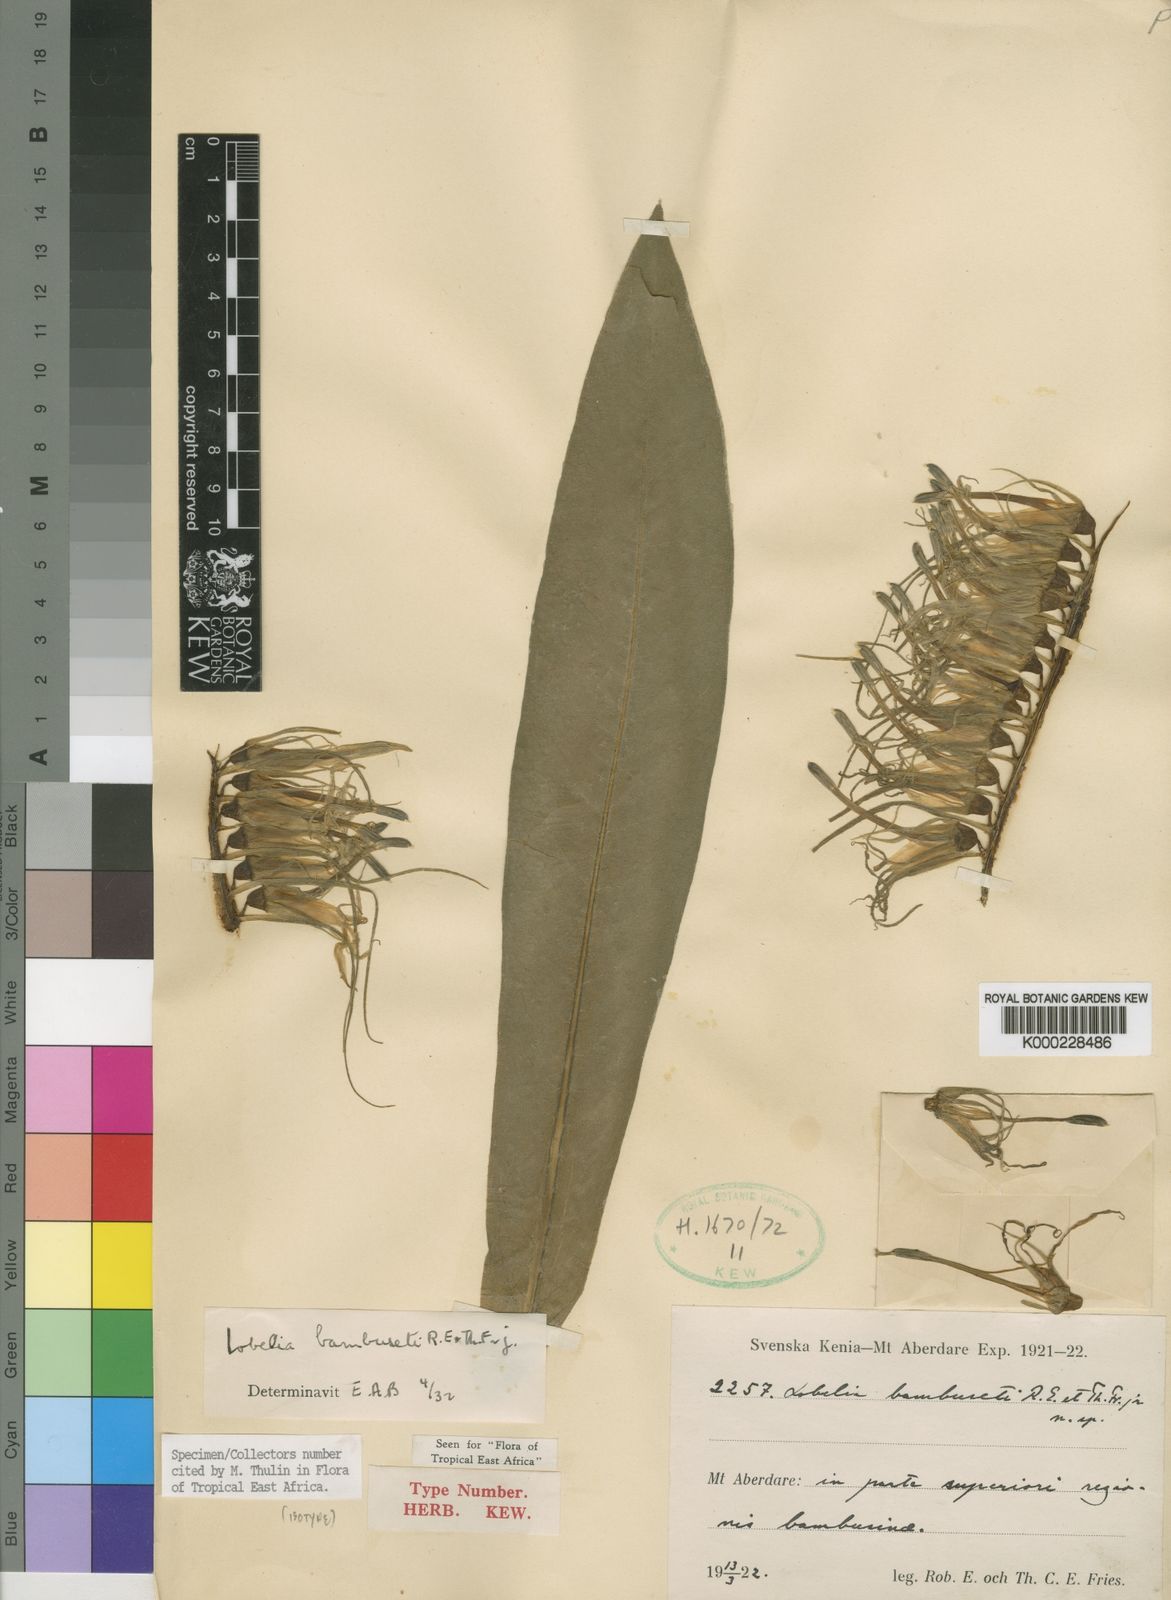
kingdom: Plantae
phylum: Tracheophyta
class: Magnoliopsida
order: Asterales
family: Campanulaceae
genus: Lobelia
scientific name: Lobelia bambuseti
